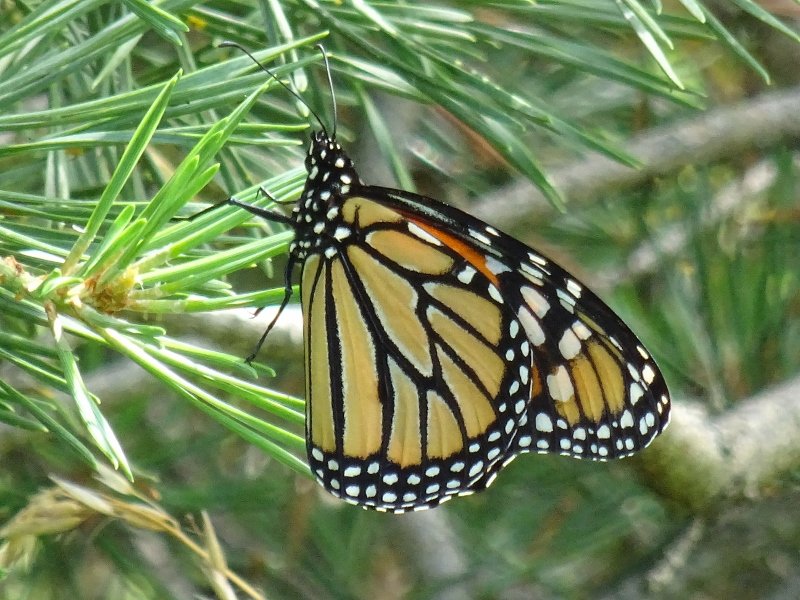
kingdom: Animalia
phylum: Arthropoda
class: Insecta
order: Lepidoptera
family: Nymphalidae
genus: Danaus
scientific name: Danaus plexippus
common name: Monarch
